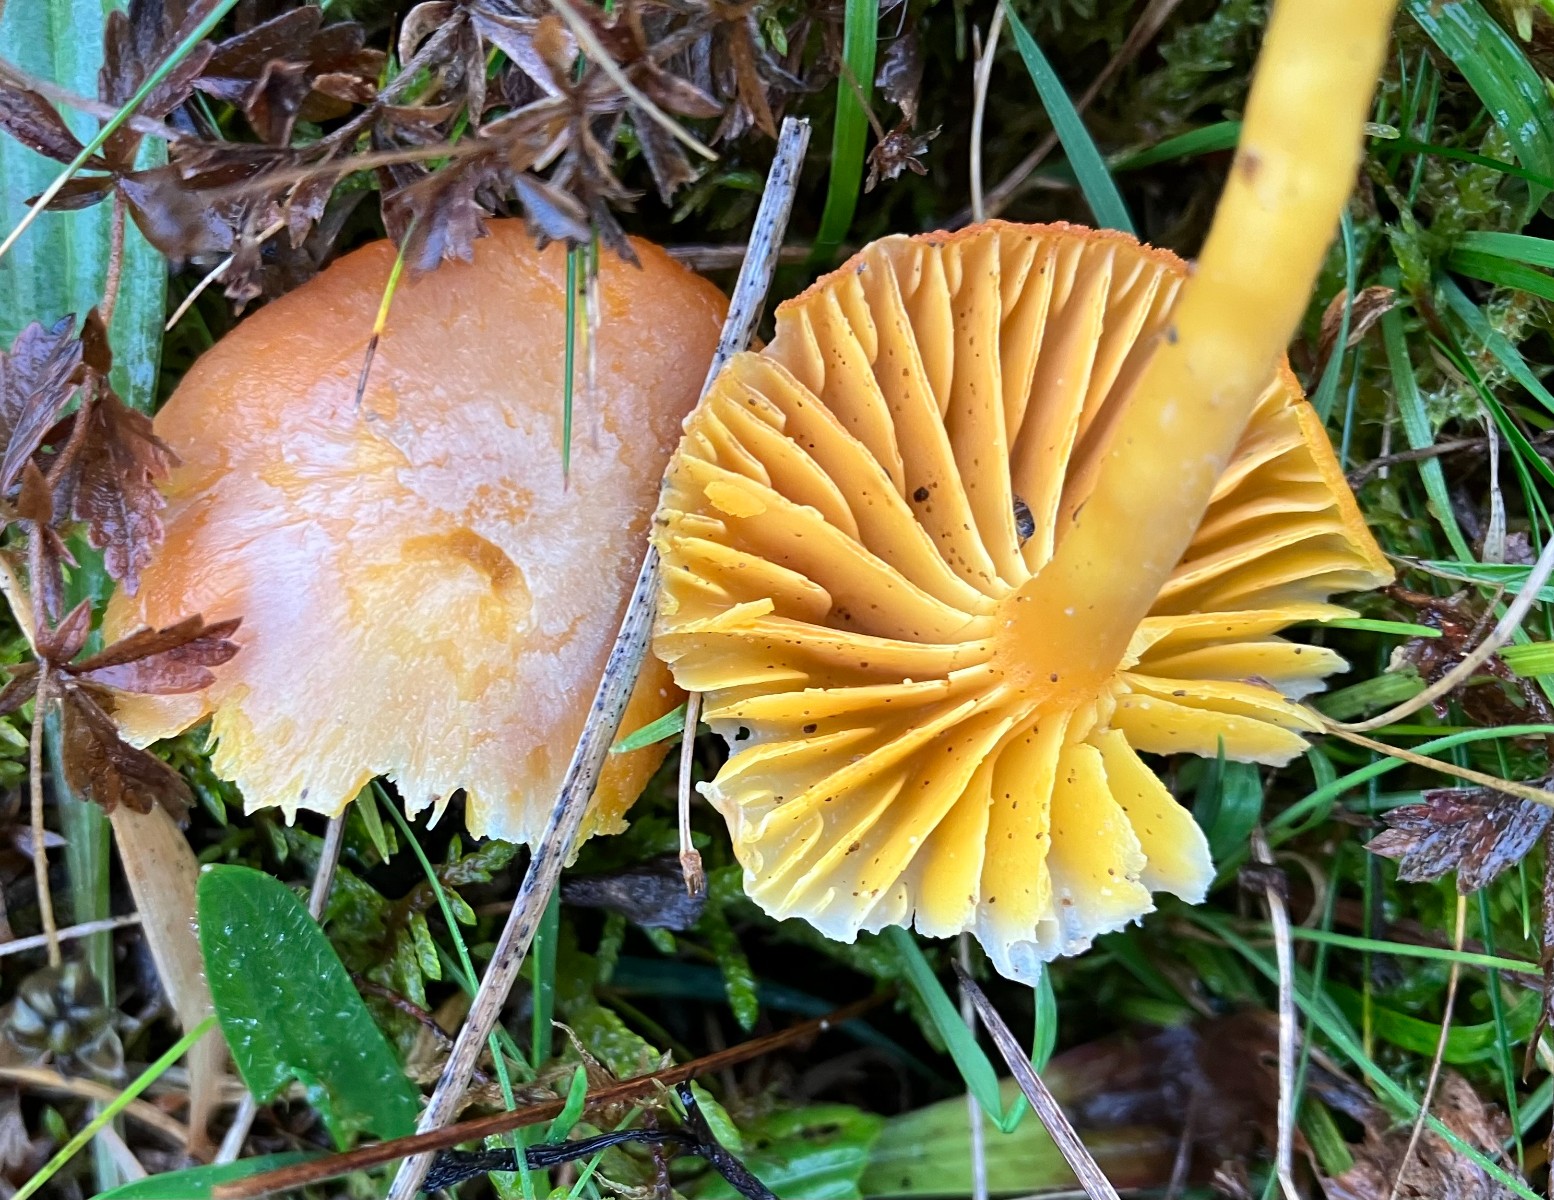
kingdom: Fungi
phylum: Basidiomycota
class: Agaricomycetes
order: Agaricales
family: Hygrophoraceae
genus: Hygrocybe
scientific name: Hygrocybe quieta
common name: tæge-vokshat
